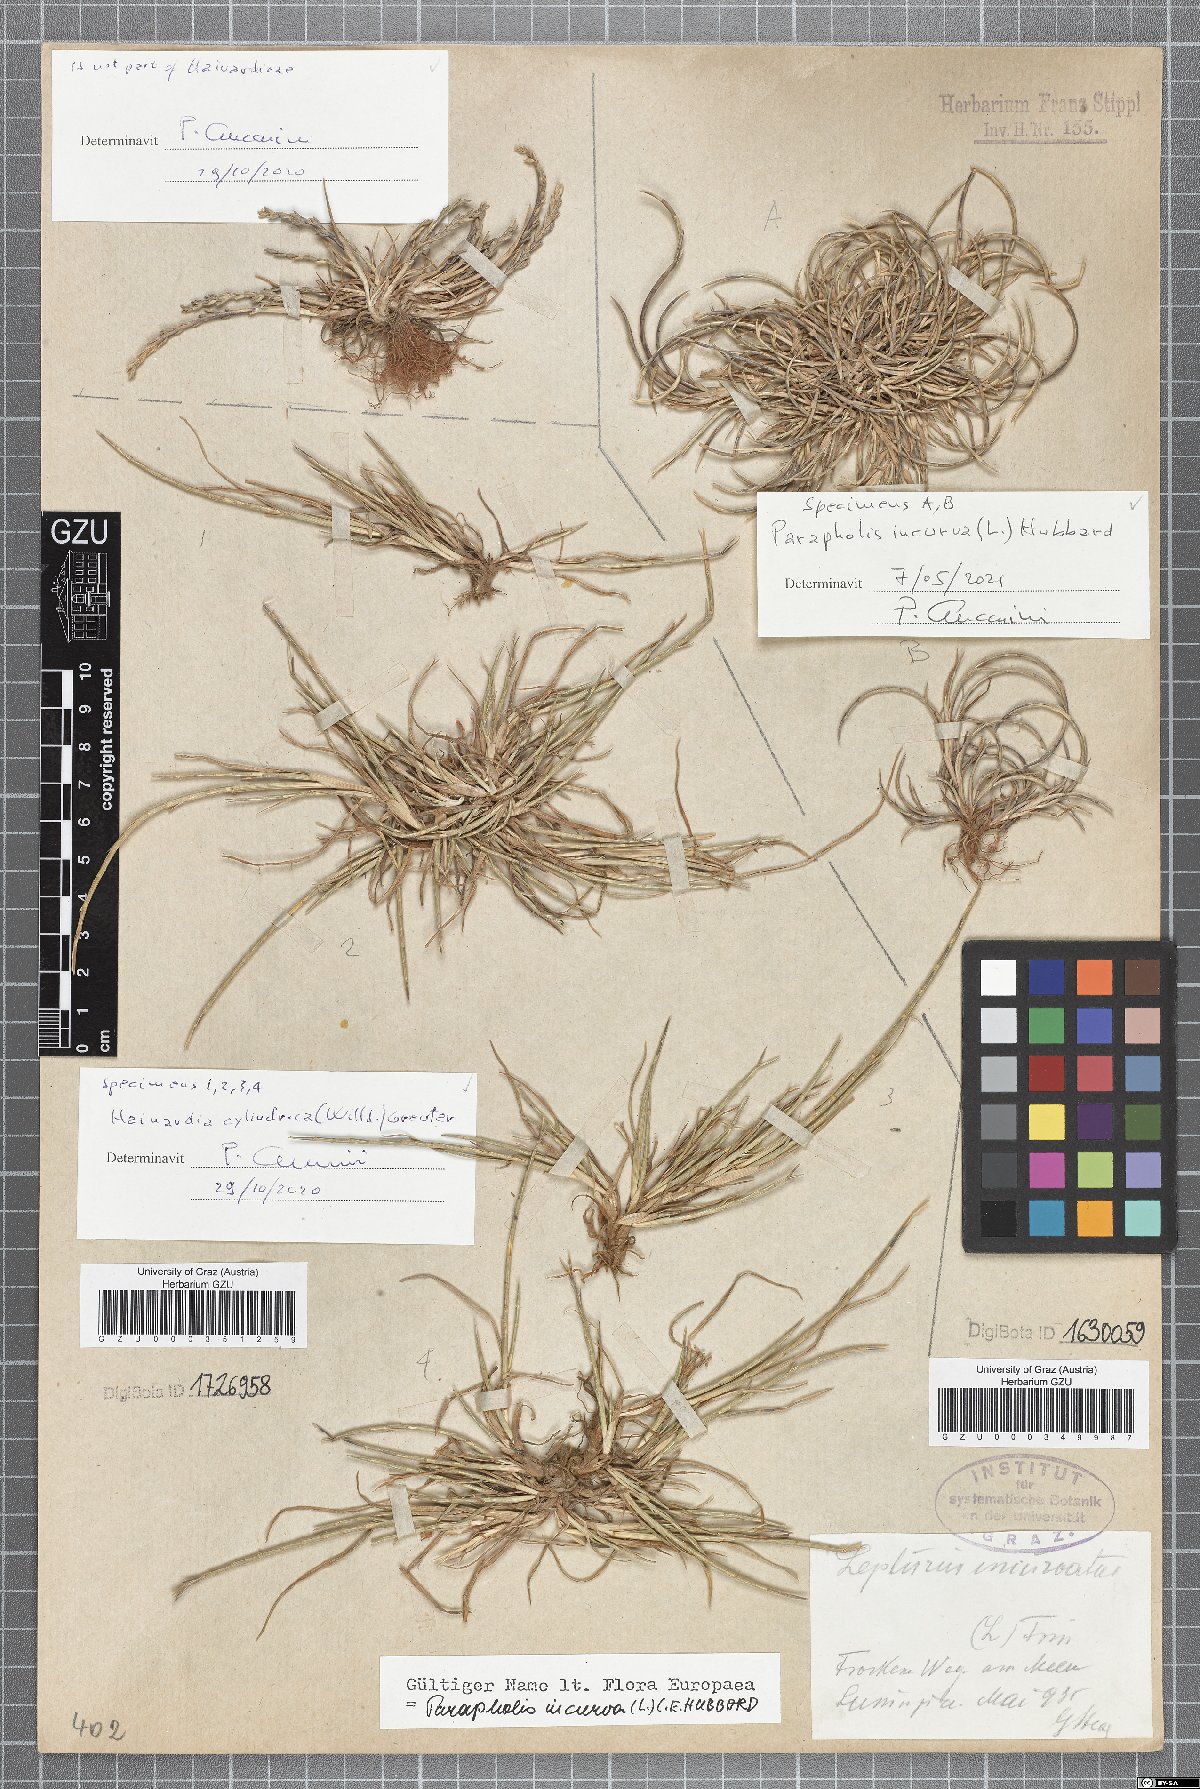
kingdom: Plantae
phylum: Tracheophyta
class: Liliopsida
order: Poales
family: Poaceae
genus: Parapholis
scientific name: Parapholis cylindrica
